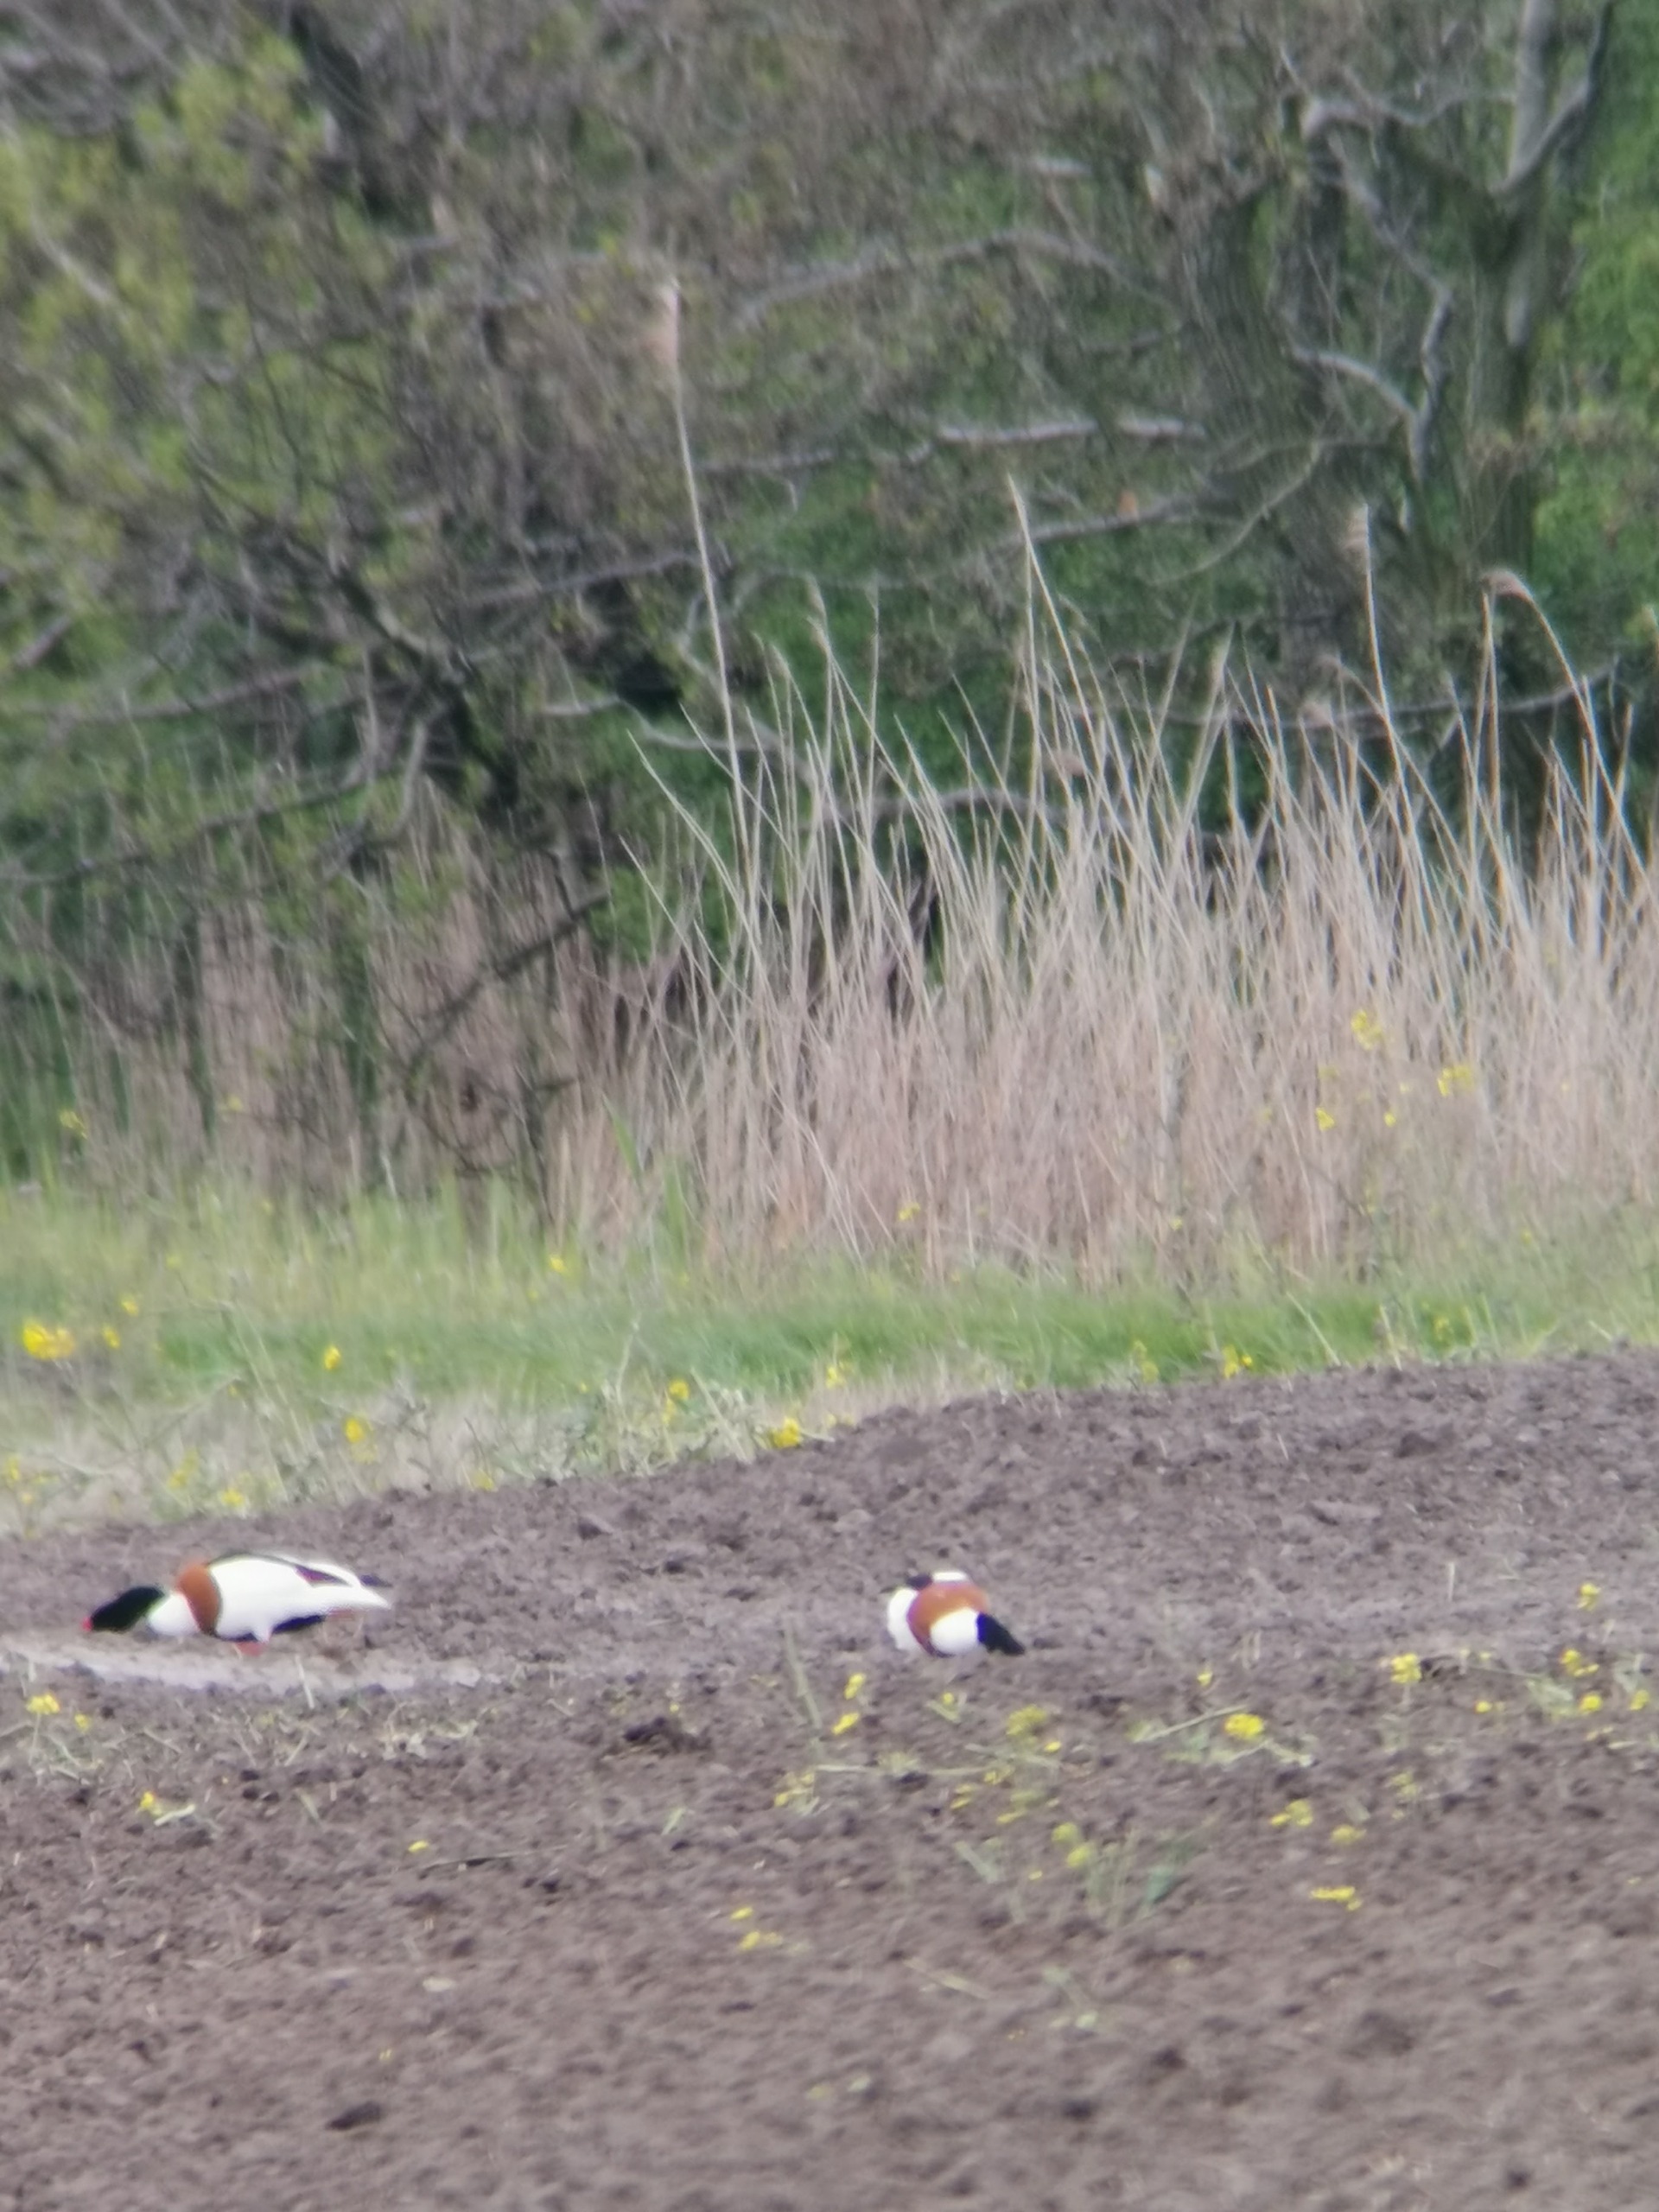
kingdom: Animalia
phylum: Chordata
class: Aves
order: Anseriformes
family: Anatidae
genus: Tadorna
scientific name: Tadorna tadorna
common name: Gravand
